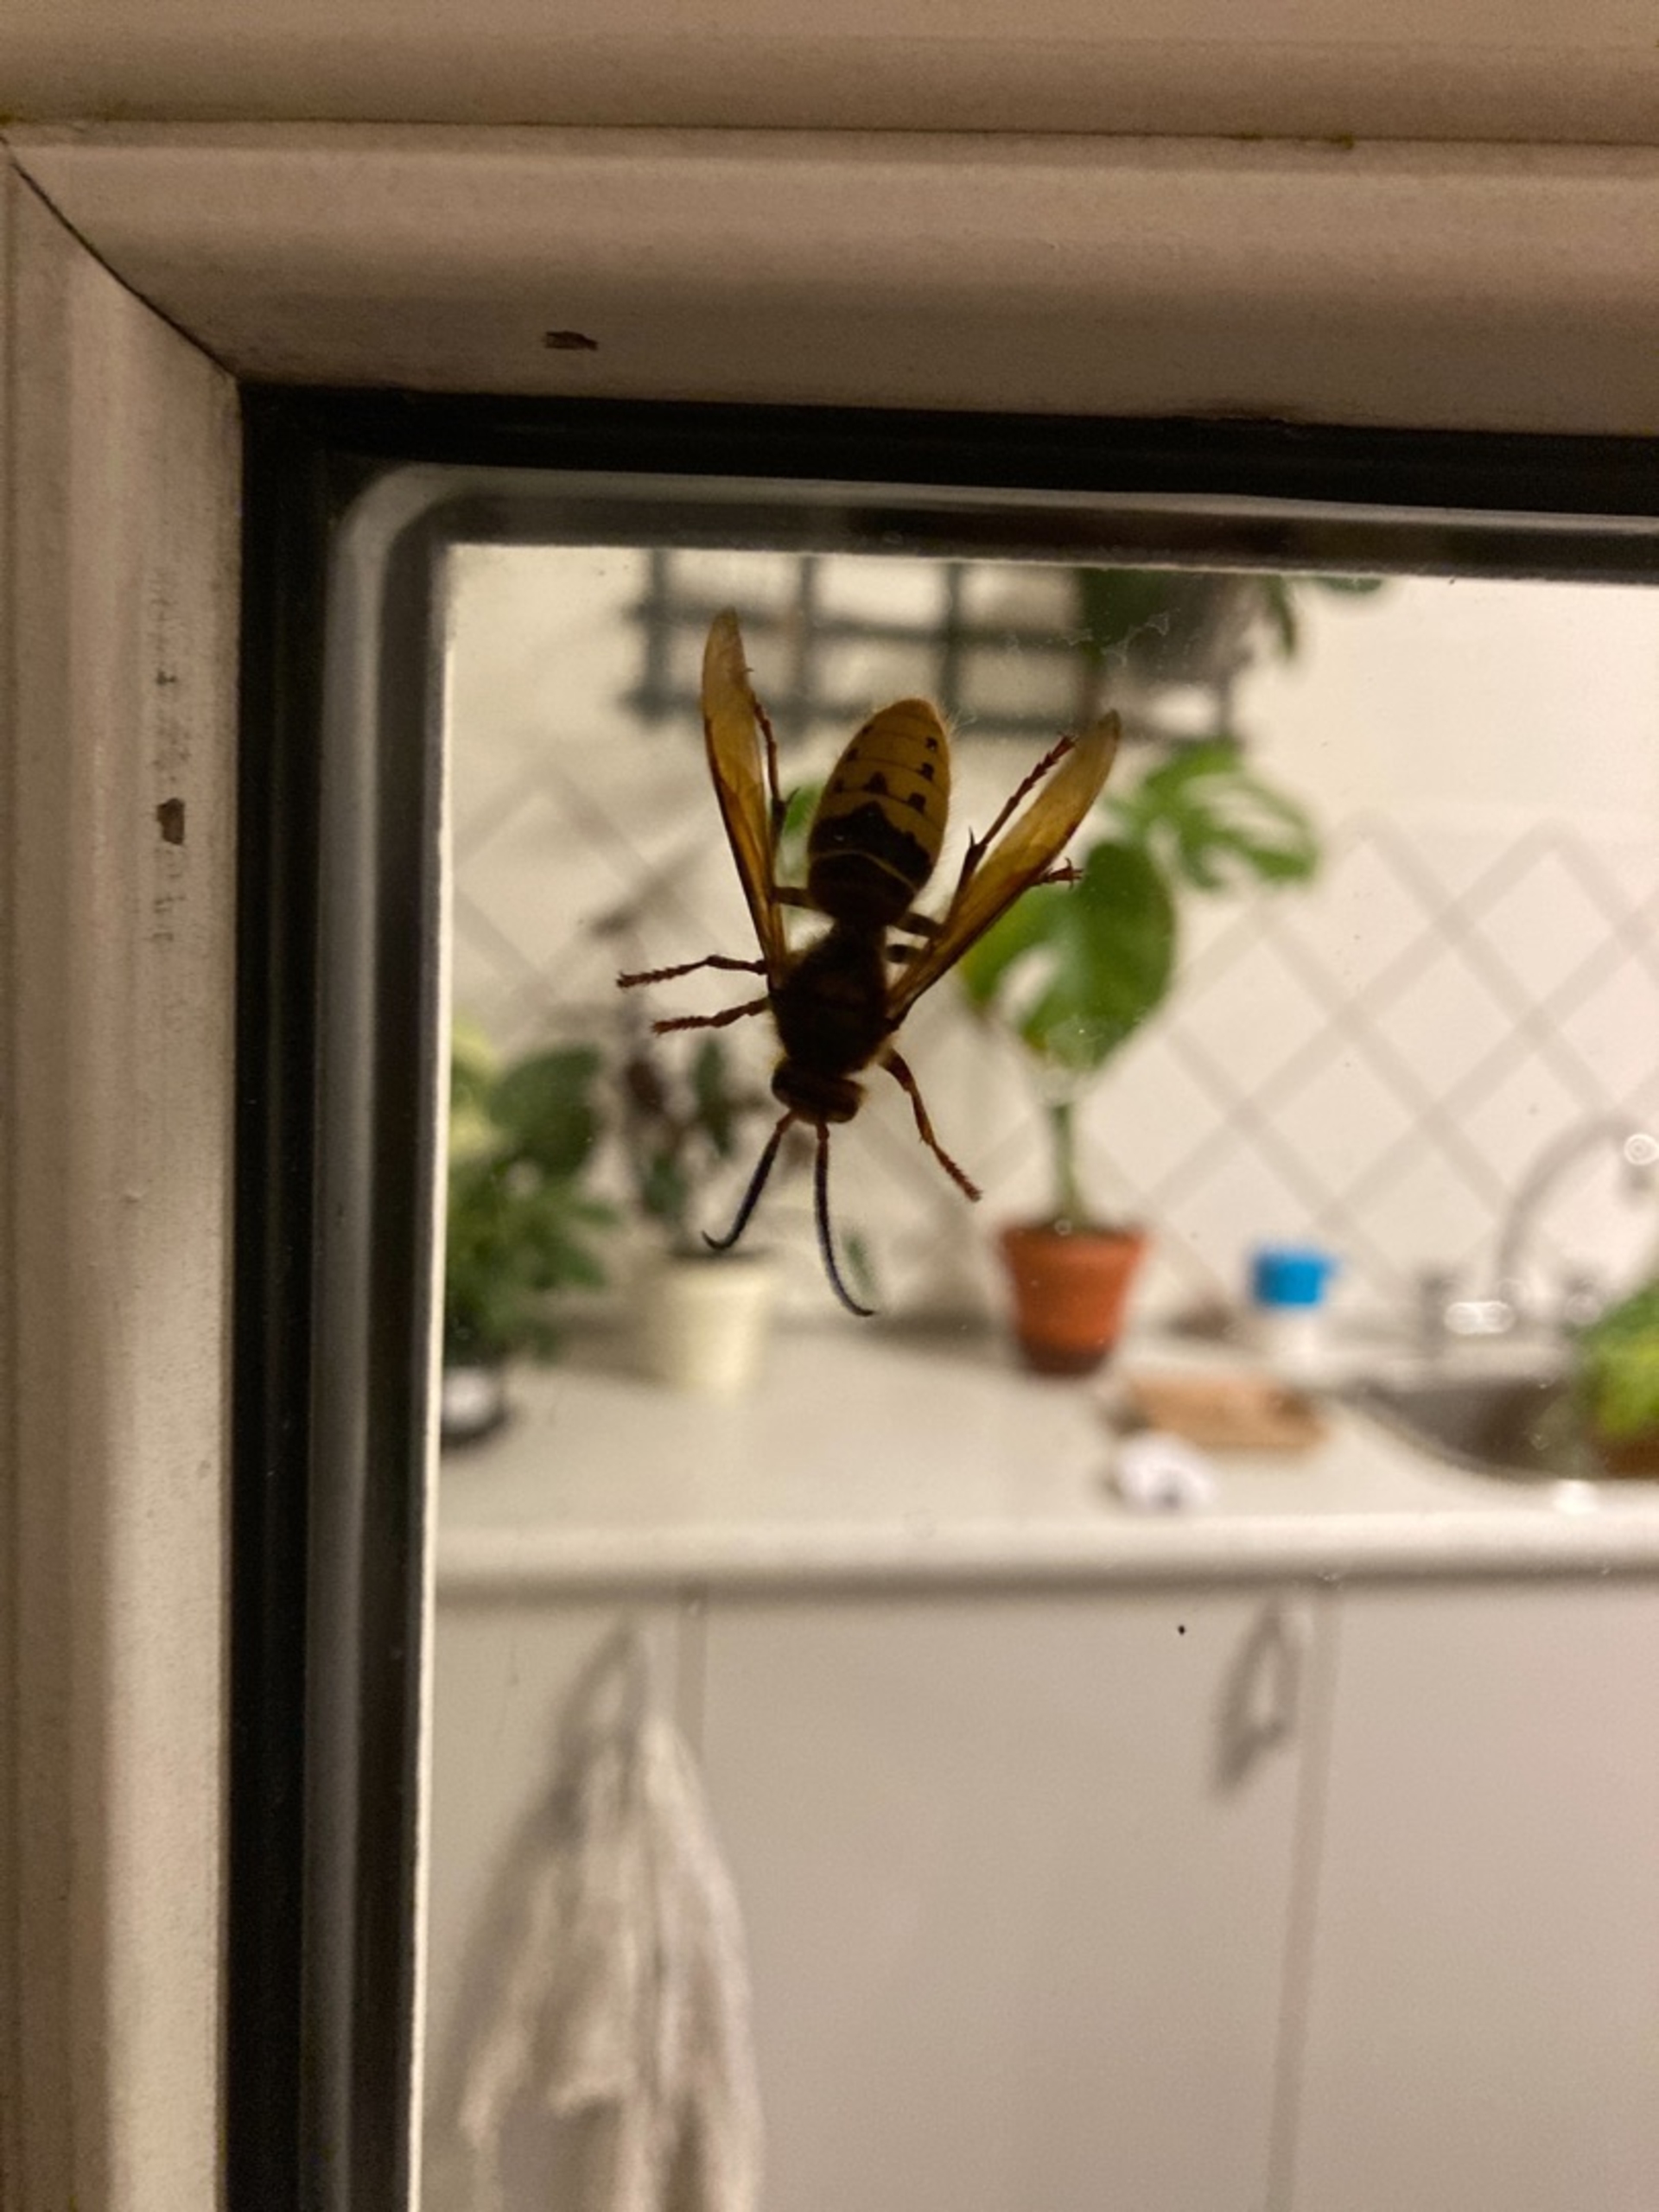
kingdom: Animalia
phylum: Arthropoda
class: Insecta
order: Hymenoptera
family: Vespidae
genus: Vespa
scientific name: Vespa crabro
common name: Stor gedehams
